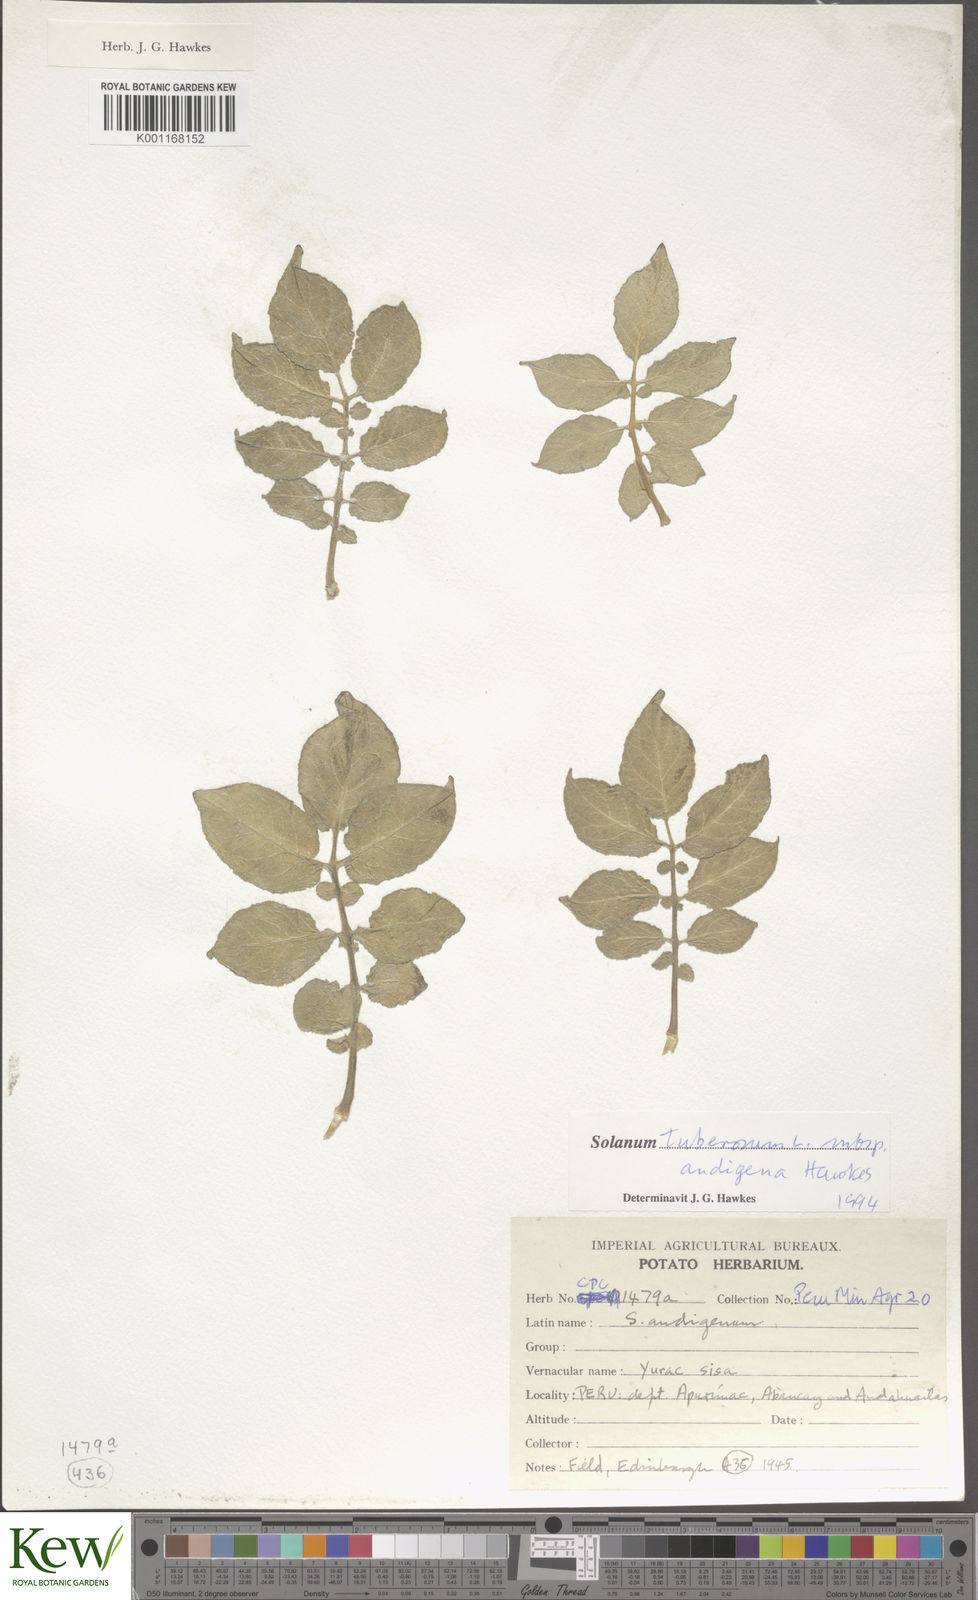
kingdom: Plantae
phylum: Tracheophyta
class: Magnoliopsida
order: Solanales
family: Solanaceae
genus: Solanum
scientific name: Solanum tuberosum
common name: Potato
